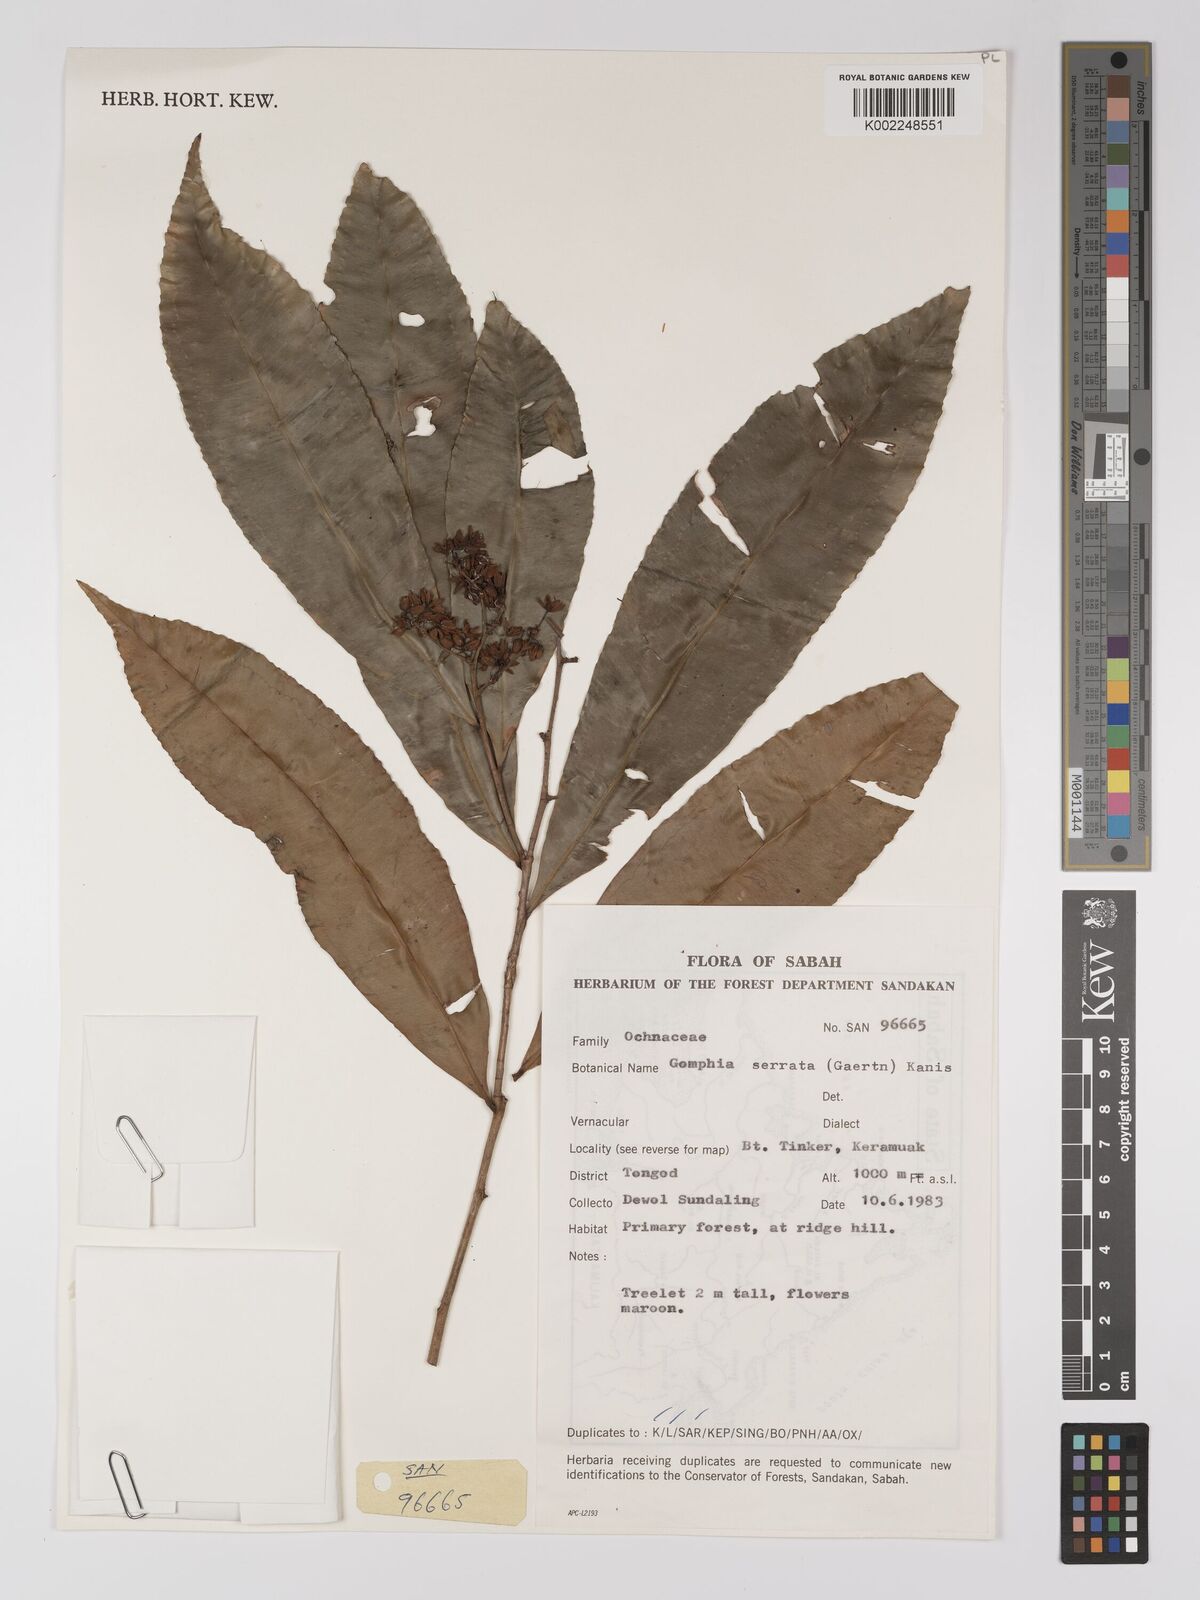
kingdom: Plantae
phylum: Tracheophyta
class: Magnoliopsida
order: Malpighiales
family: Ochnaceae
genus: Gomphia
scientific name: Gomphia serrata
